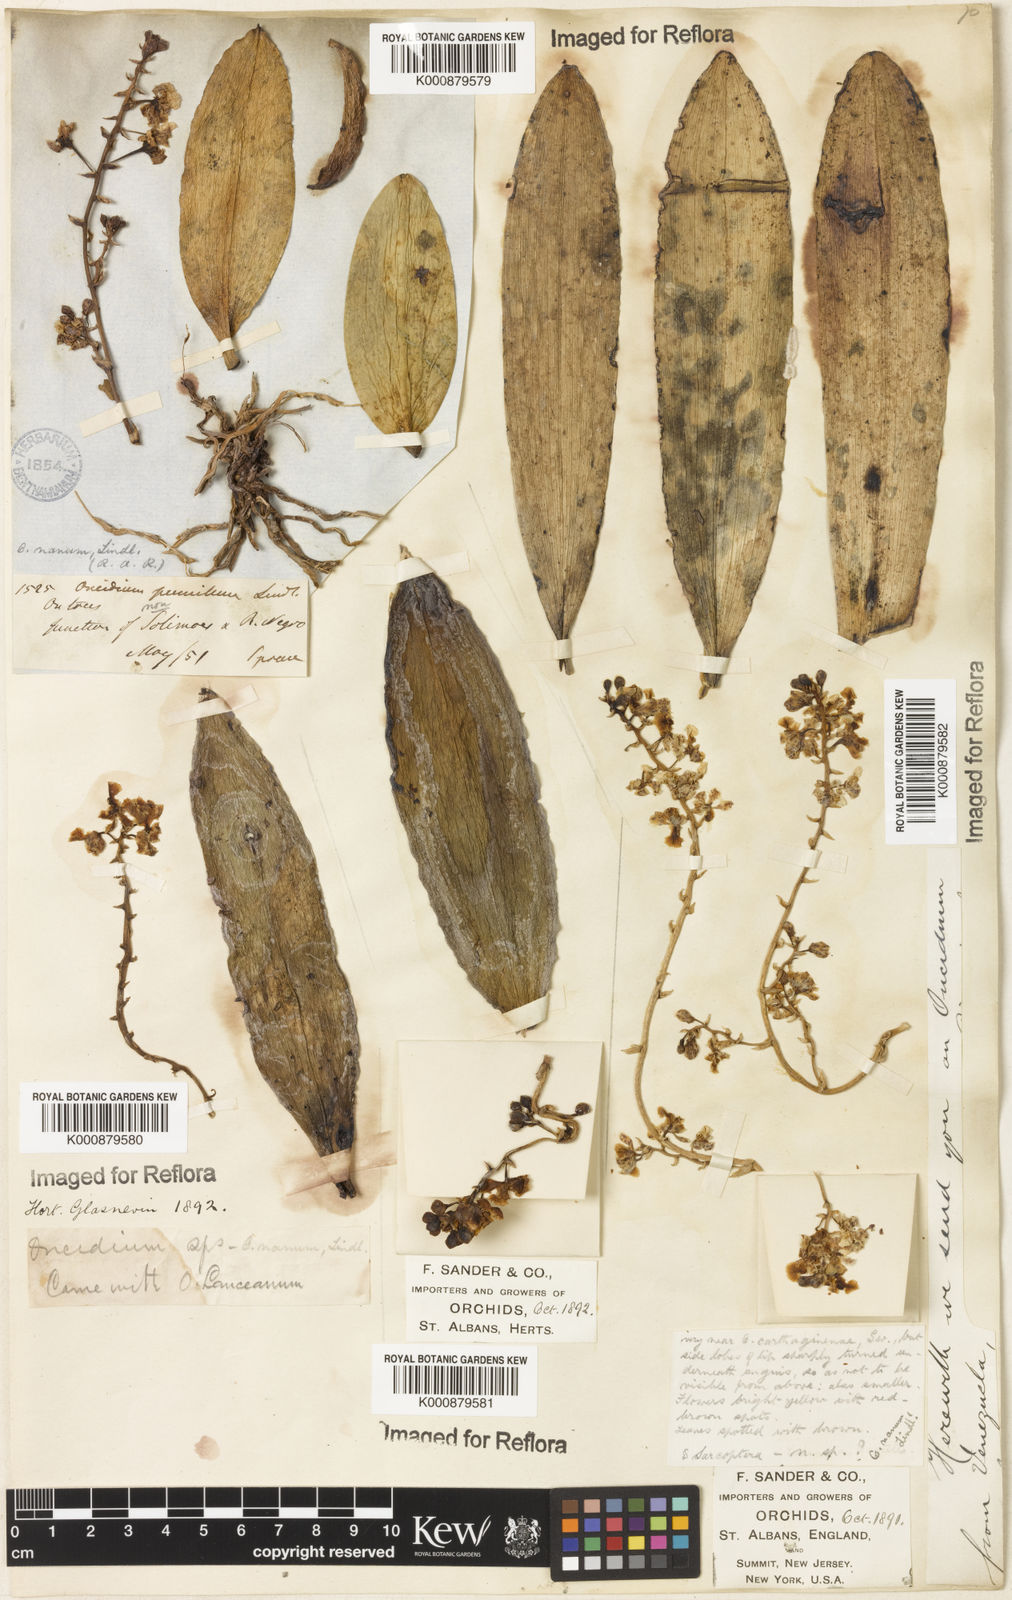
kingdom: Plantae
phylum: Tracheophyta
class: Liliopsida
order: Asparagales
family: Orchidaceae
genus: Trichocentrum
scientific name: Trichocentrum nanum
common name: Mule-ear orchid
